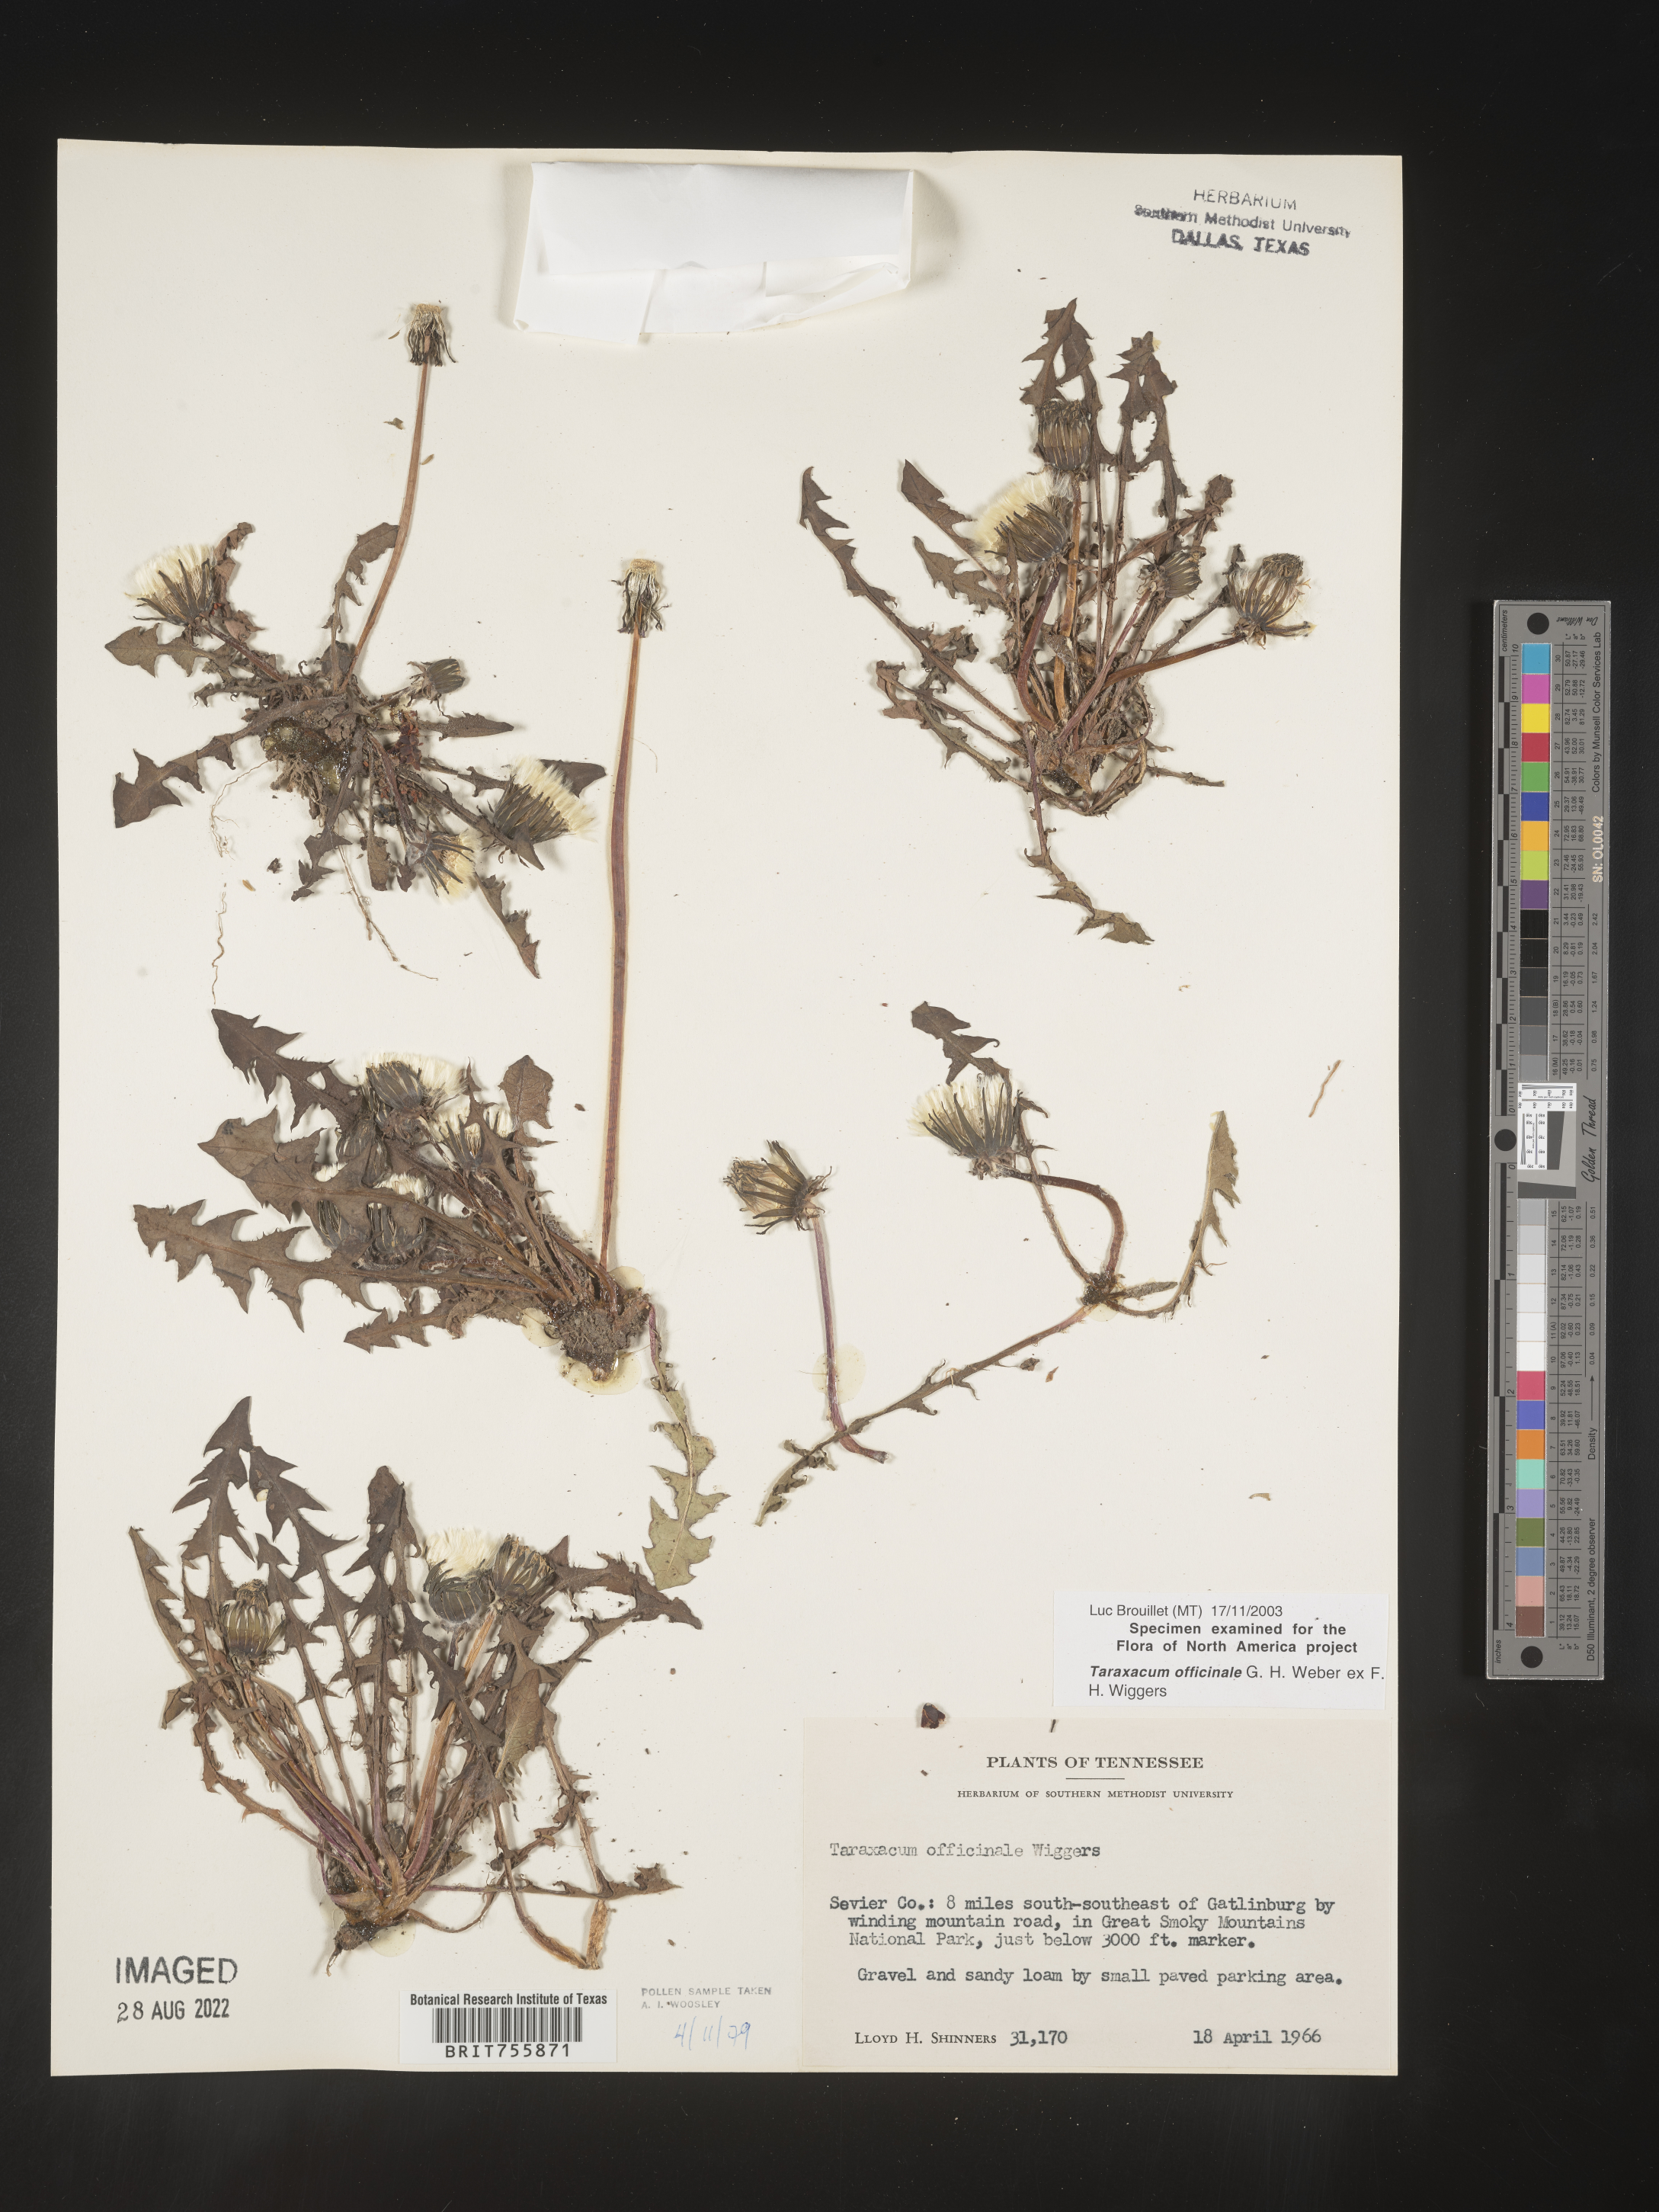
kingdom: Plantae
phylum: Tracheophyta
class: Magnoliopsida
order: Asterales
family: Asteraceae
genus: Taraxacum
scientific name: Taraxacum officinale
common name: Common dandelion
